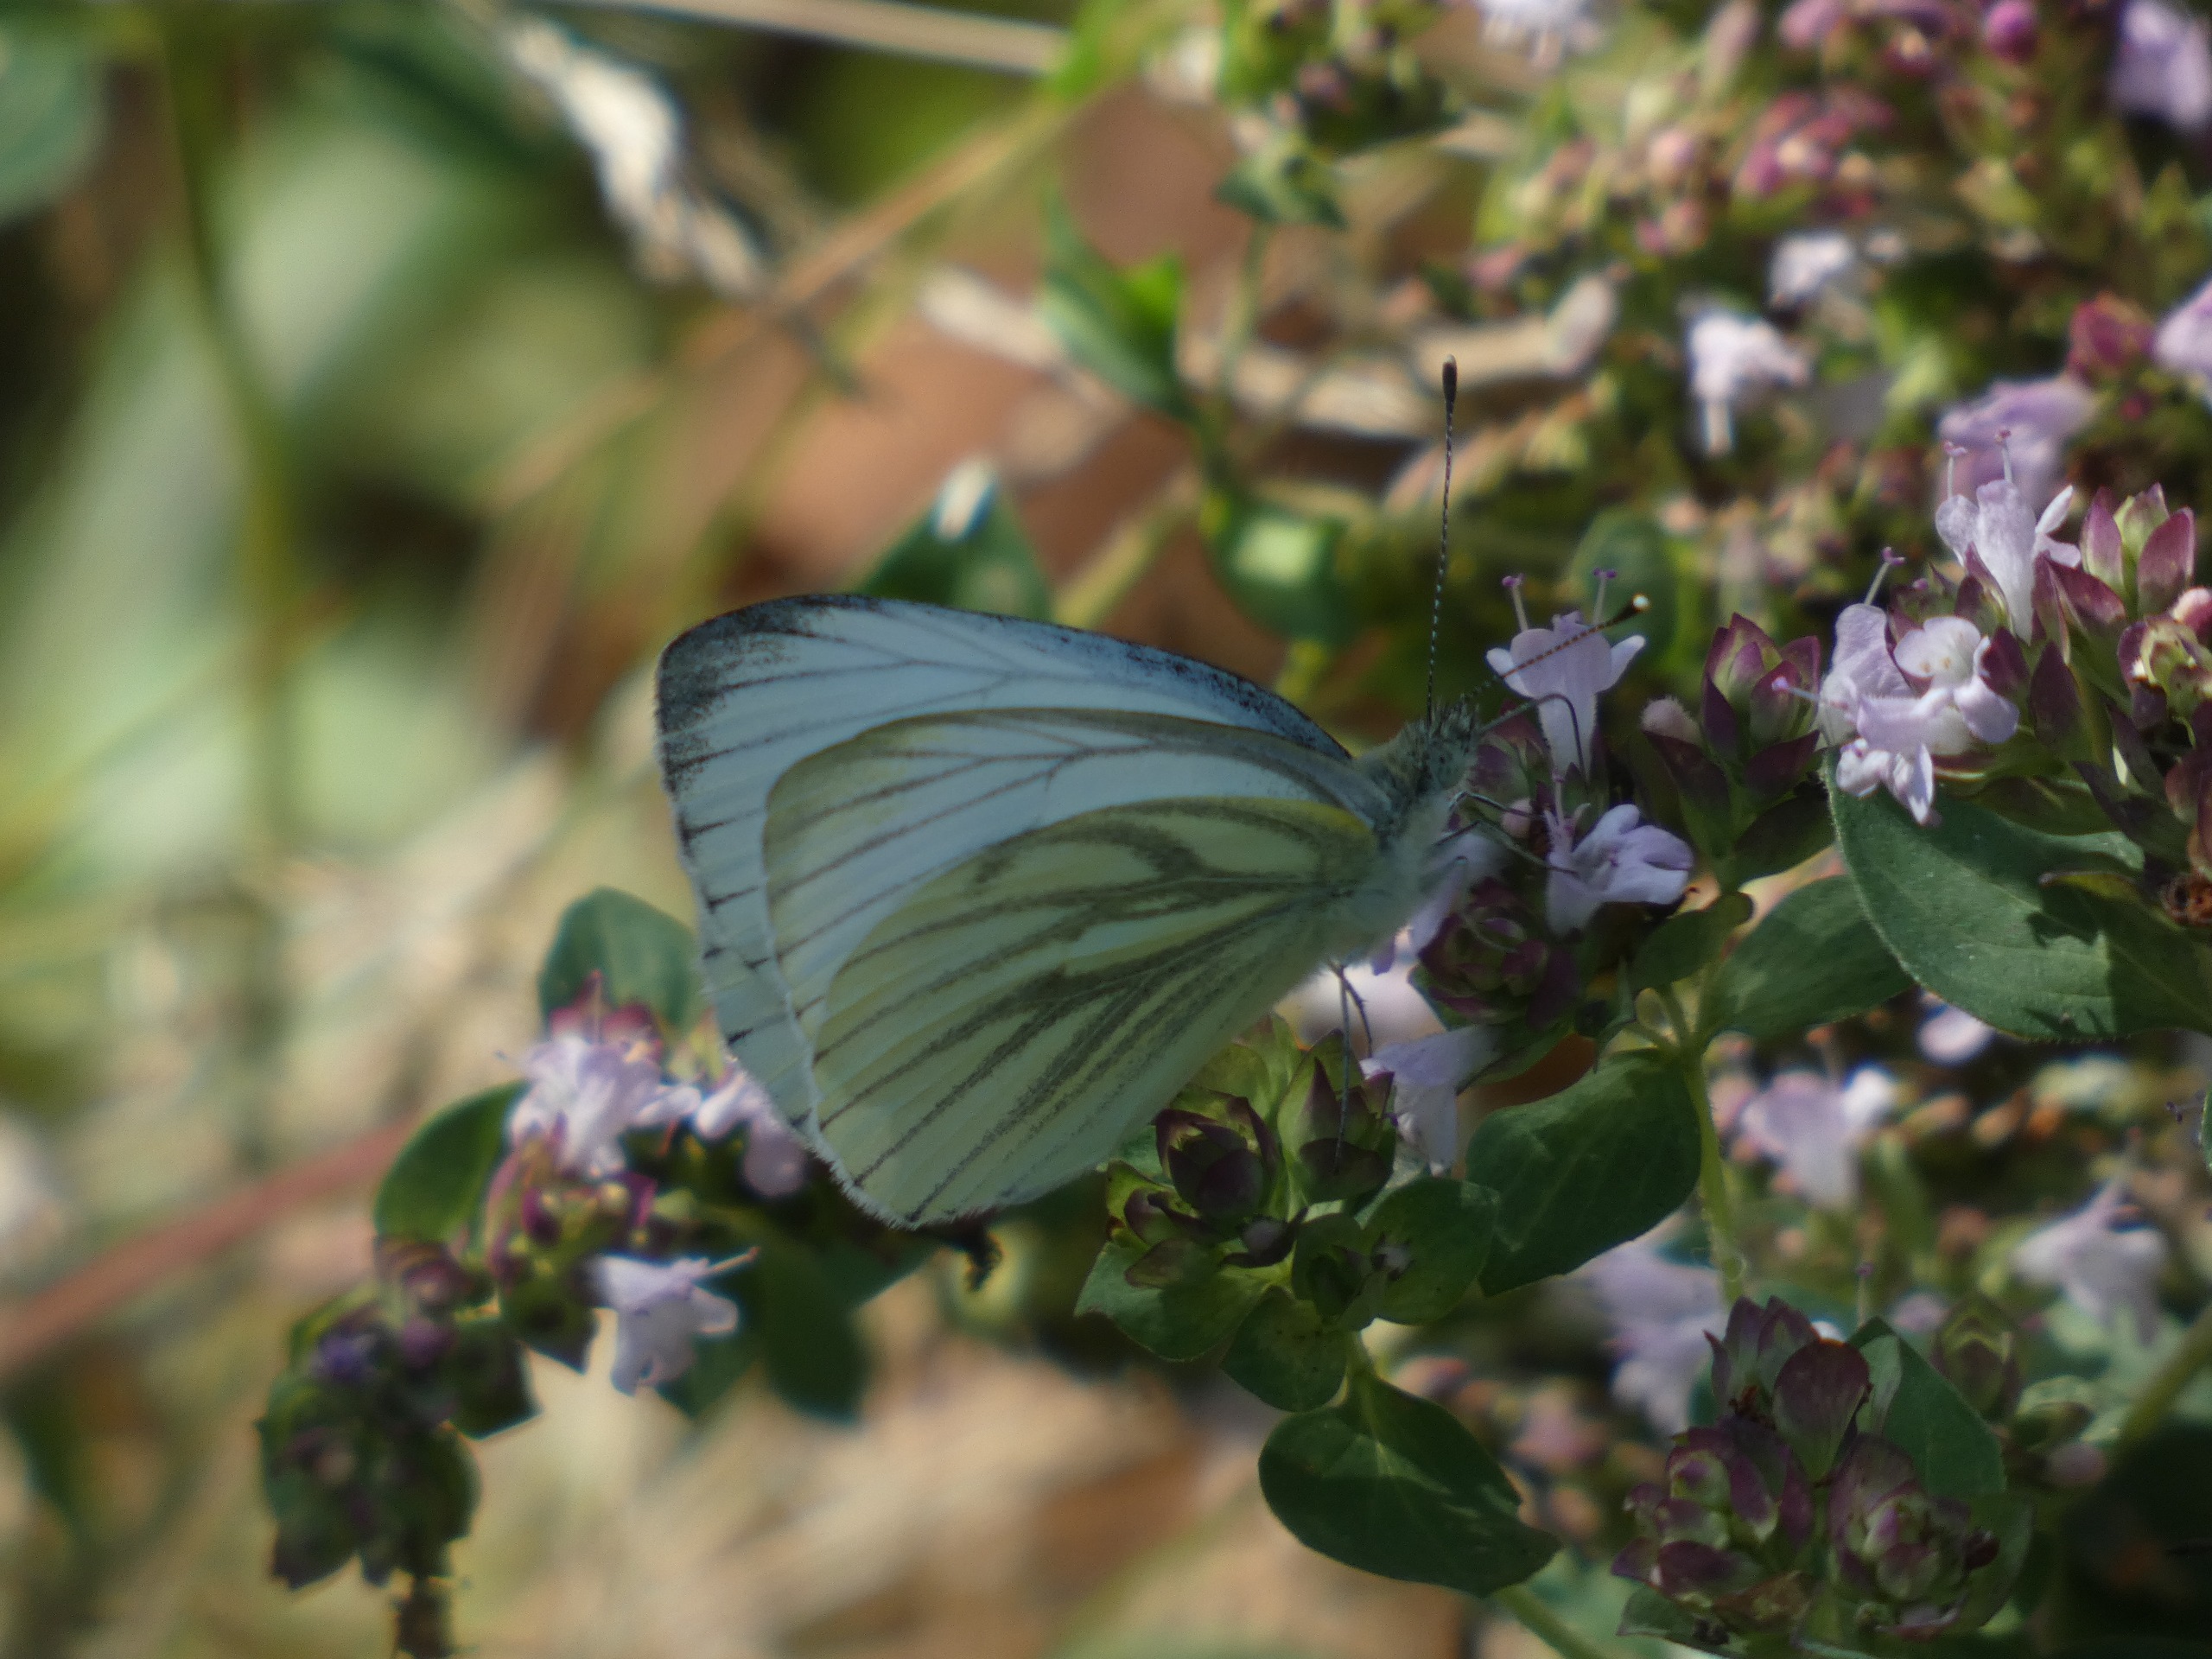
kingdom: Animalia
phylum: Arthropoda
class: Insecta
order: Lepidoptera
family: Pieridae
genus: Pieris
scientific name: Pieris napi
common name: Grønåret kålsommerfugl
